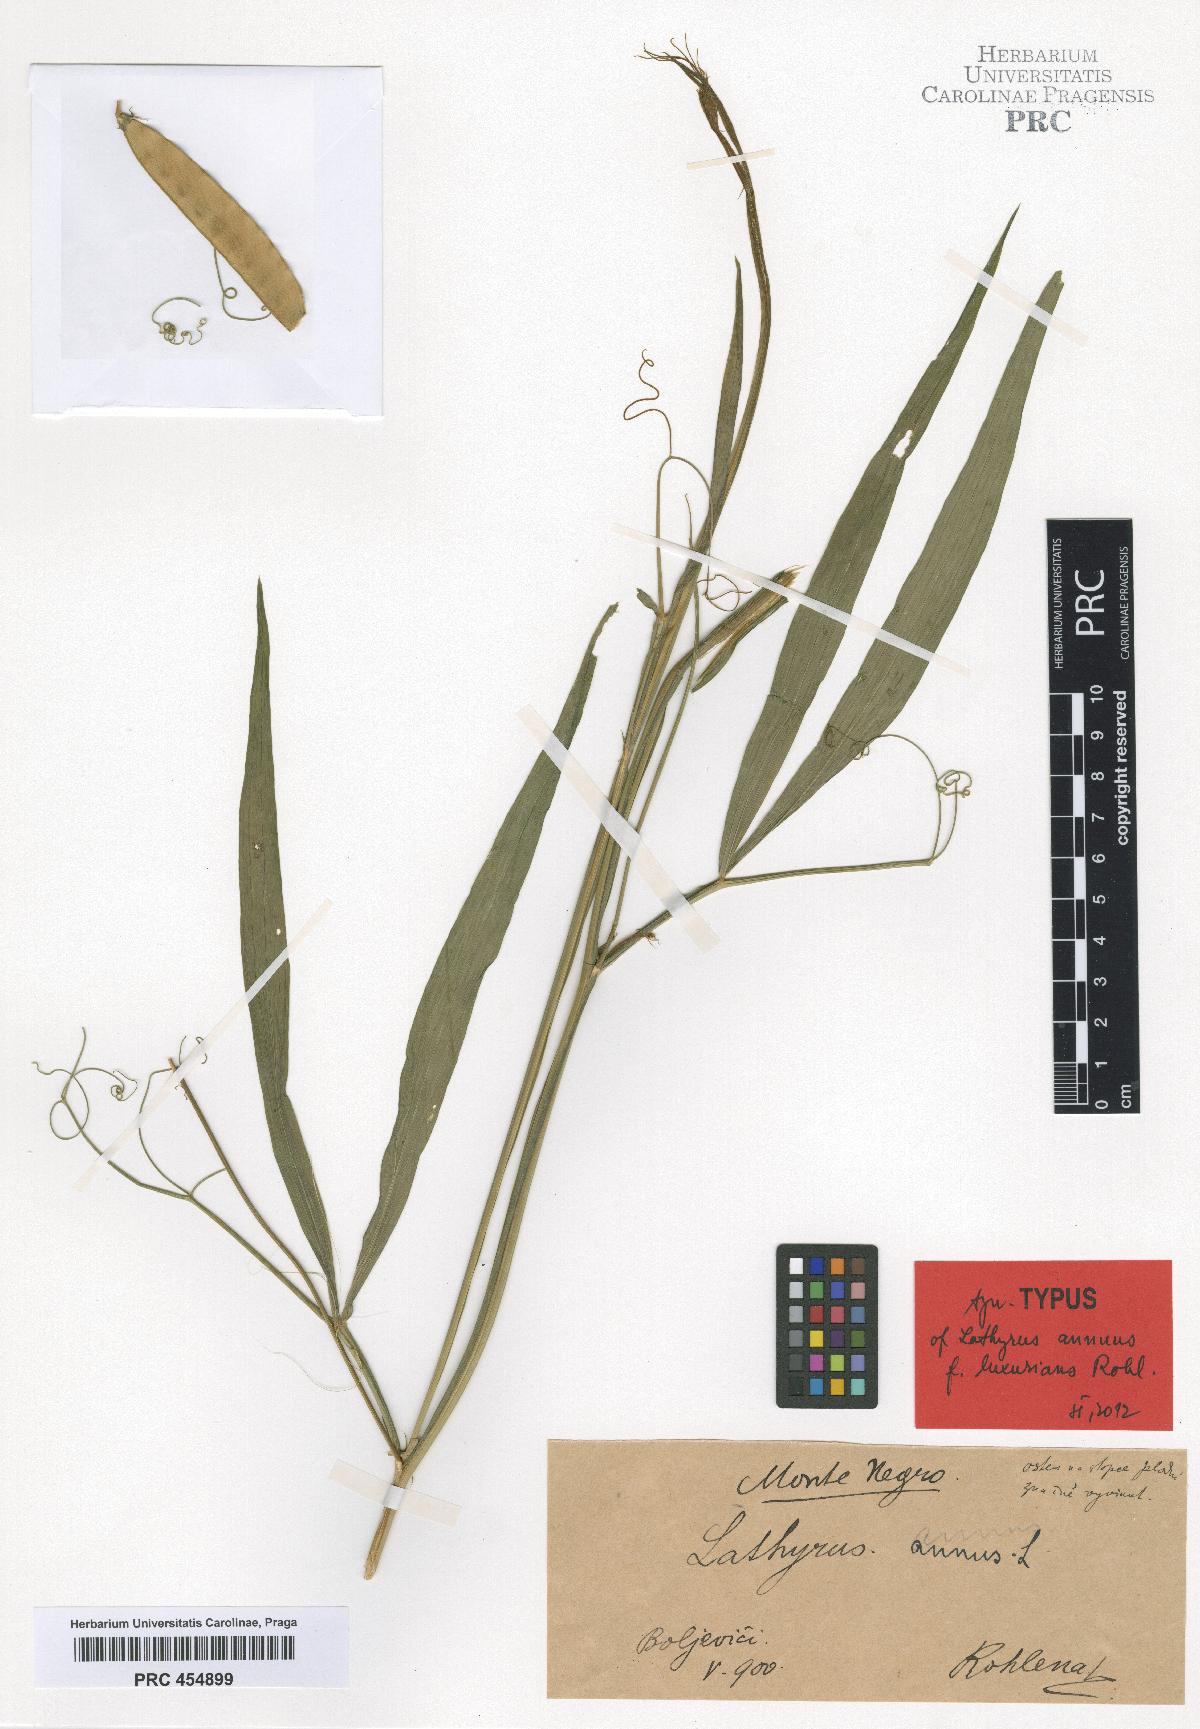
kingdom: Plantae
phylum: Tracheophyta
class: Magnoliopsida
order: Fabales
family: Fabaceae
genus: Lathyrus
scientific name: Lathyrus annuus
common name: Fodder pea
